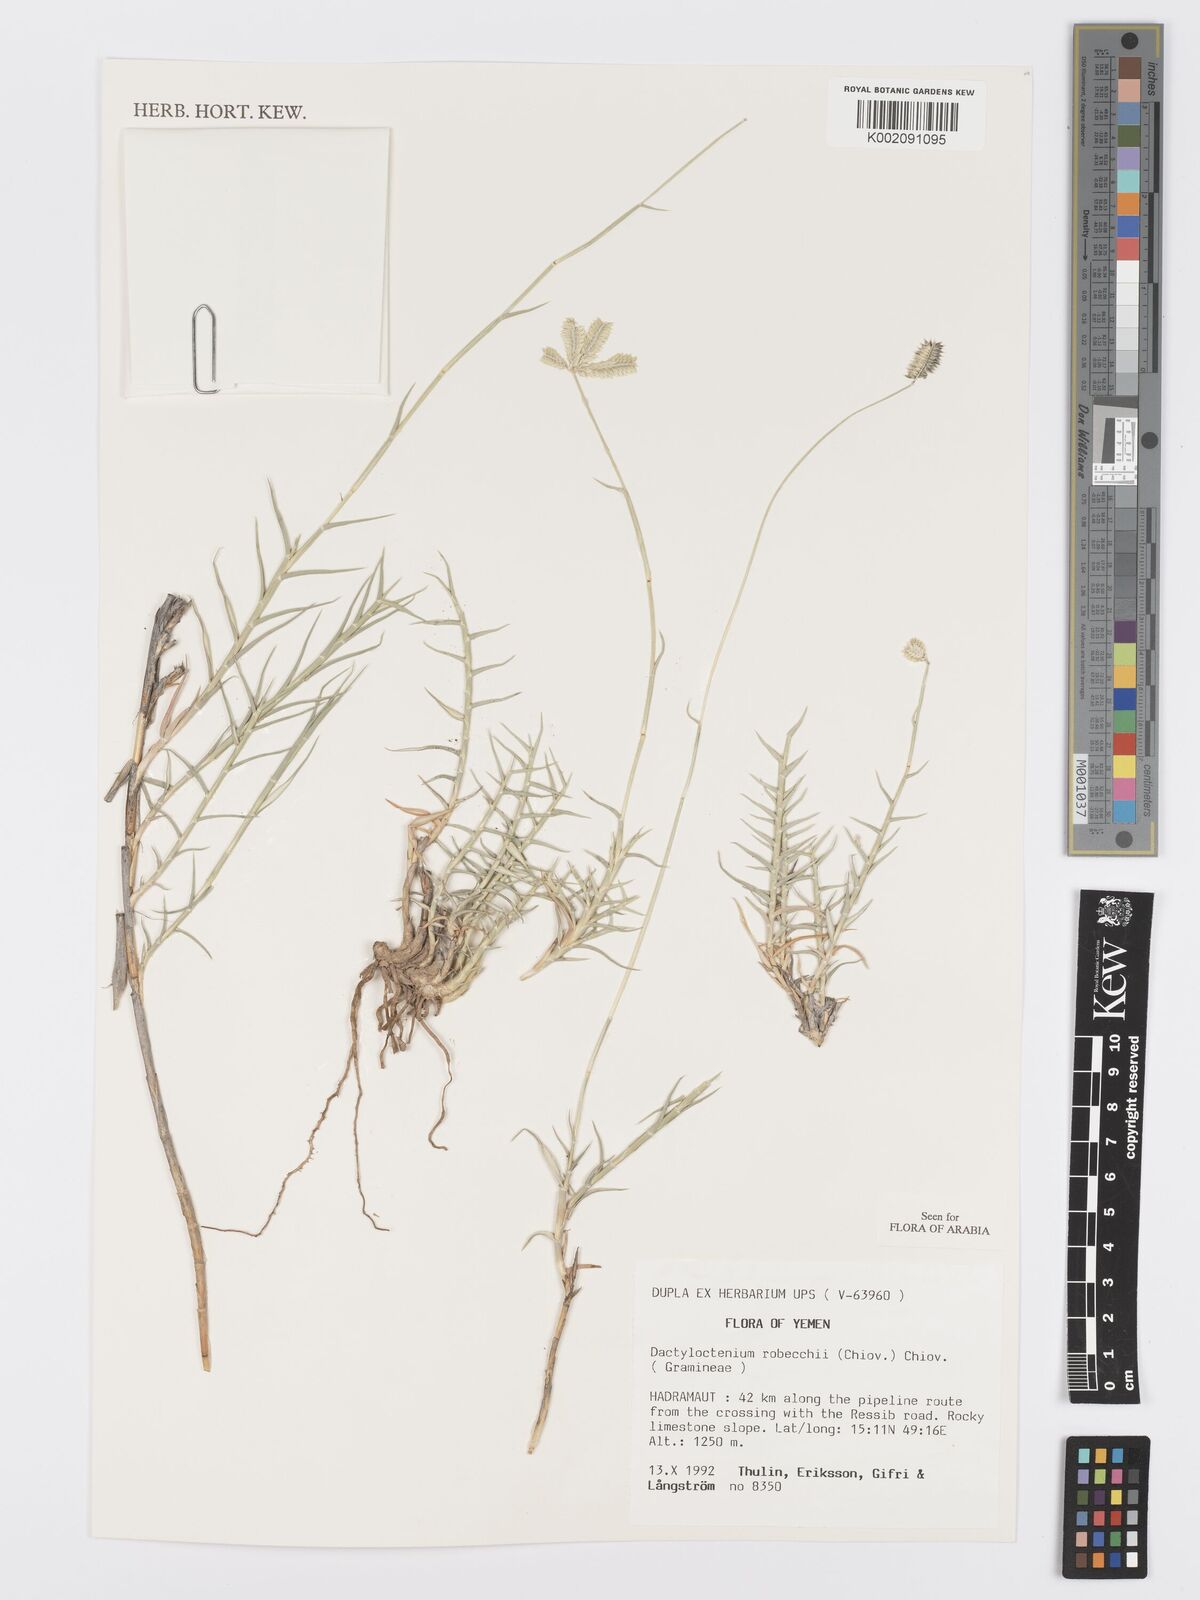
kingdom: Plantae
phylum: Tracheophyta
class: Liliopsida
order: Poales
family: Poaceae
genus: Dactyloctenium
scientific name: Dactyloctenium robecchii
